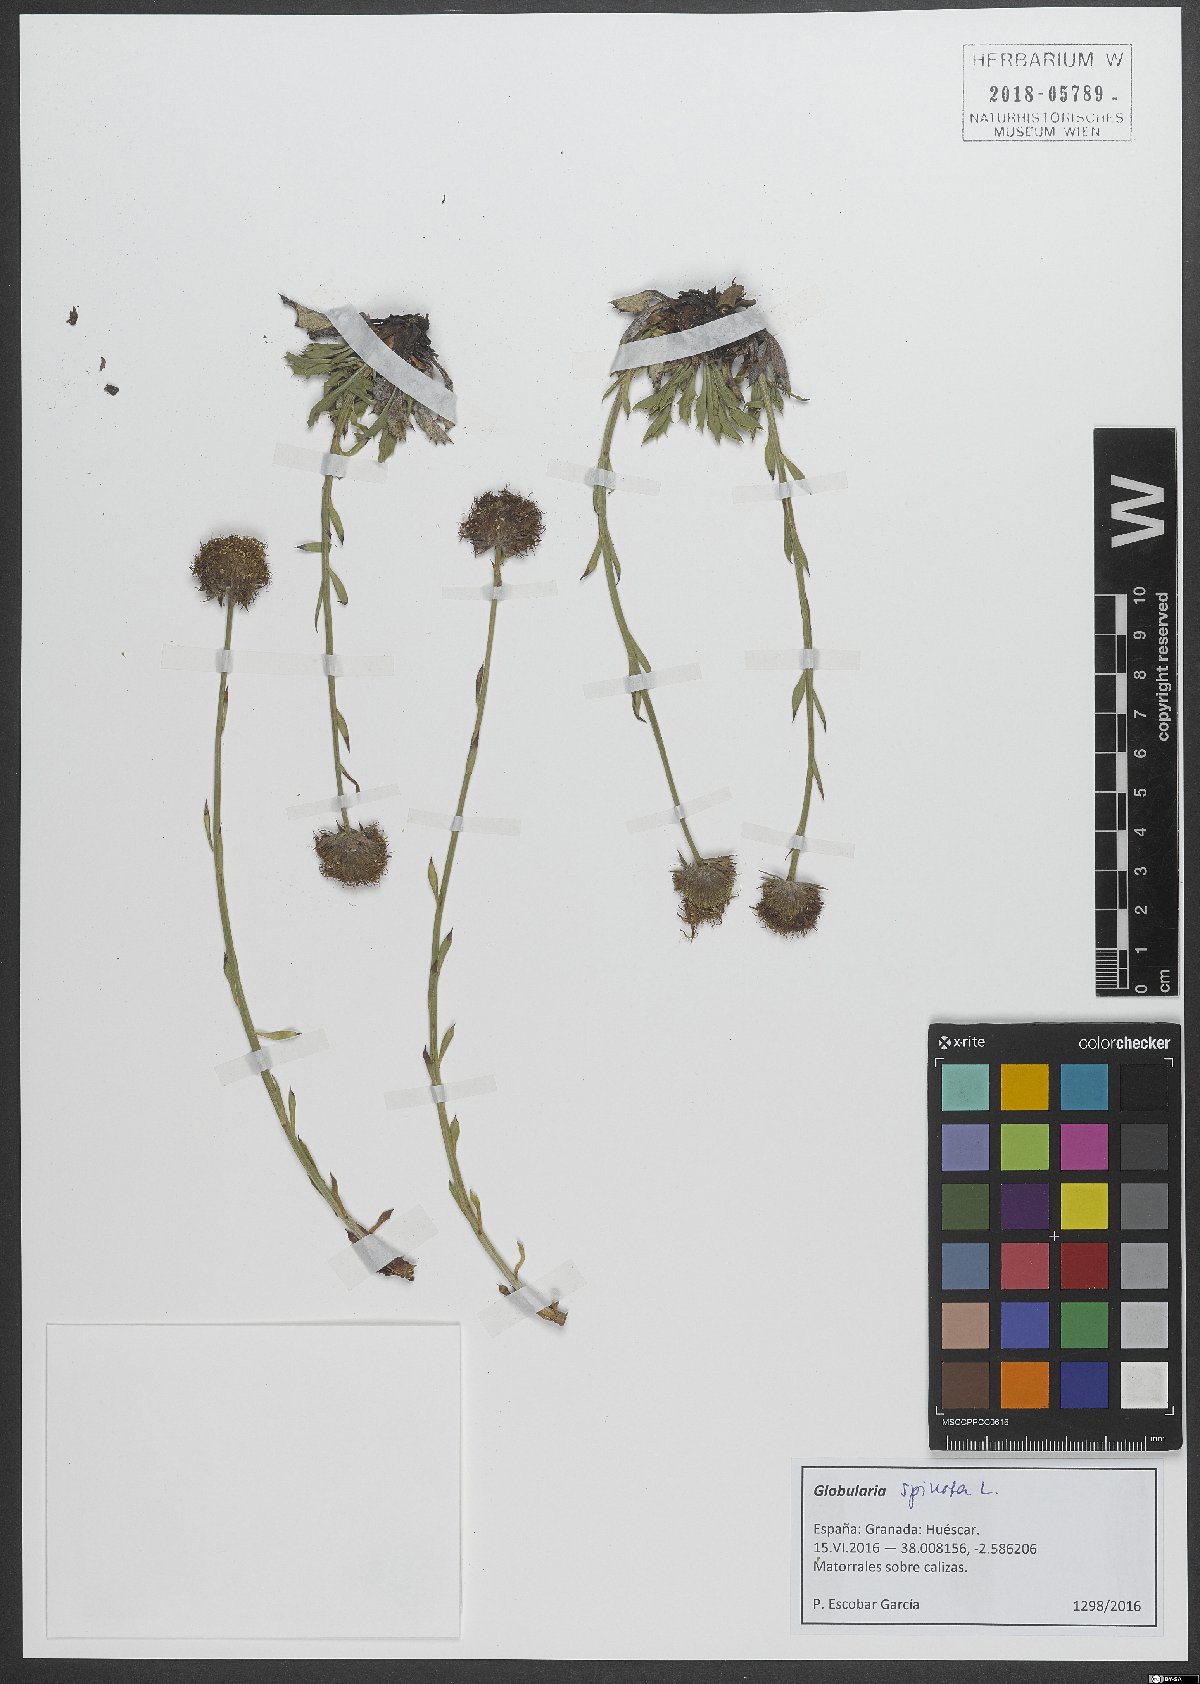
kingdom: Plantae
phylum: Tracheophyta
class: Magnoliopsida
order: Lamiales
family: Plantaginaceae
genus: Globularia
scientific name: Globularia spinosa
